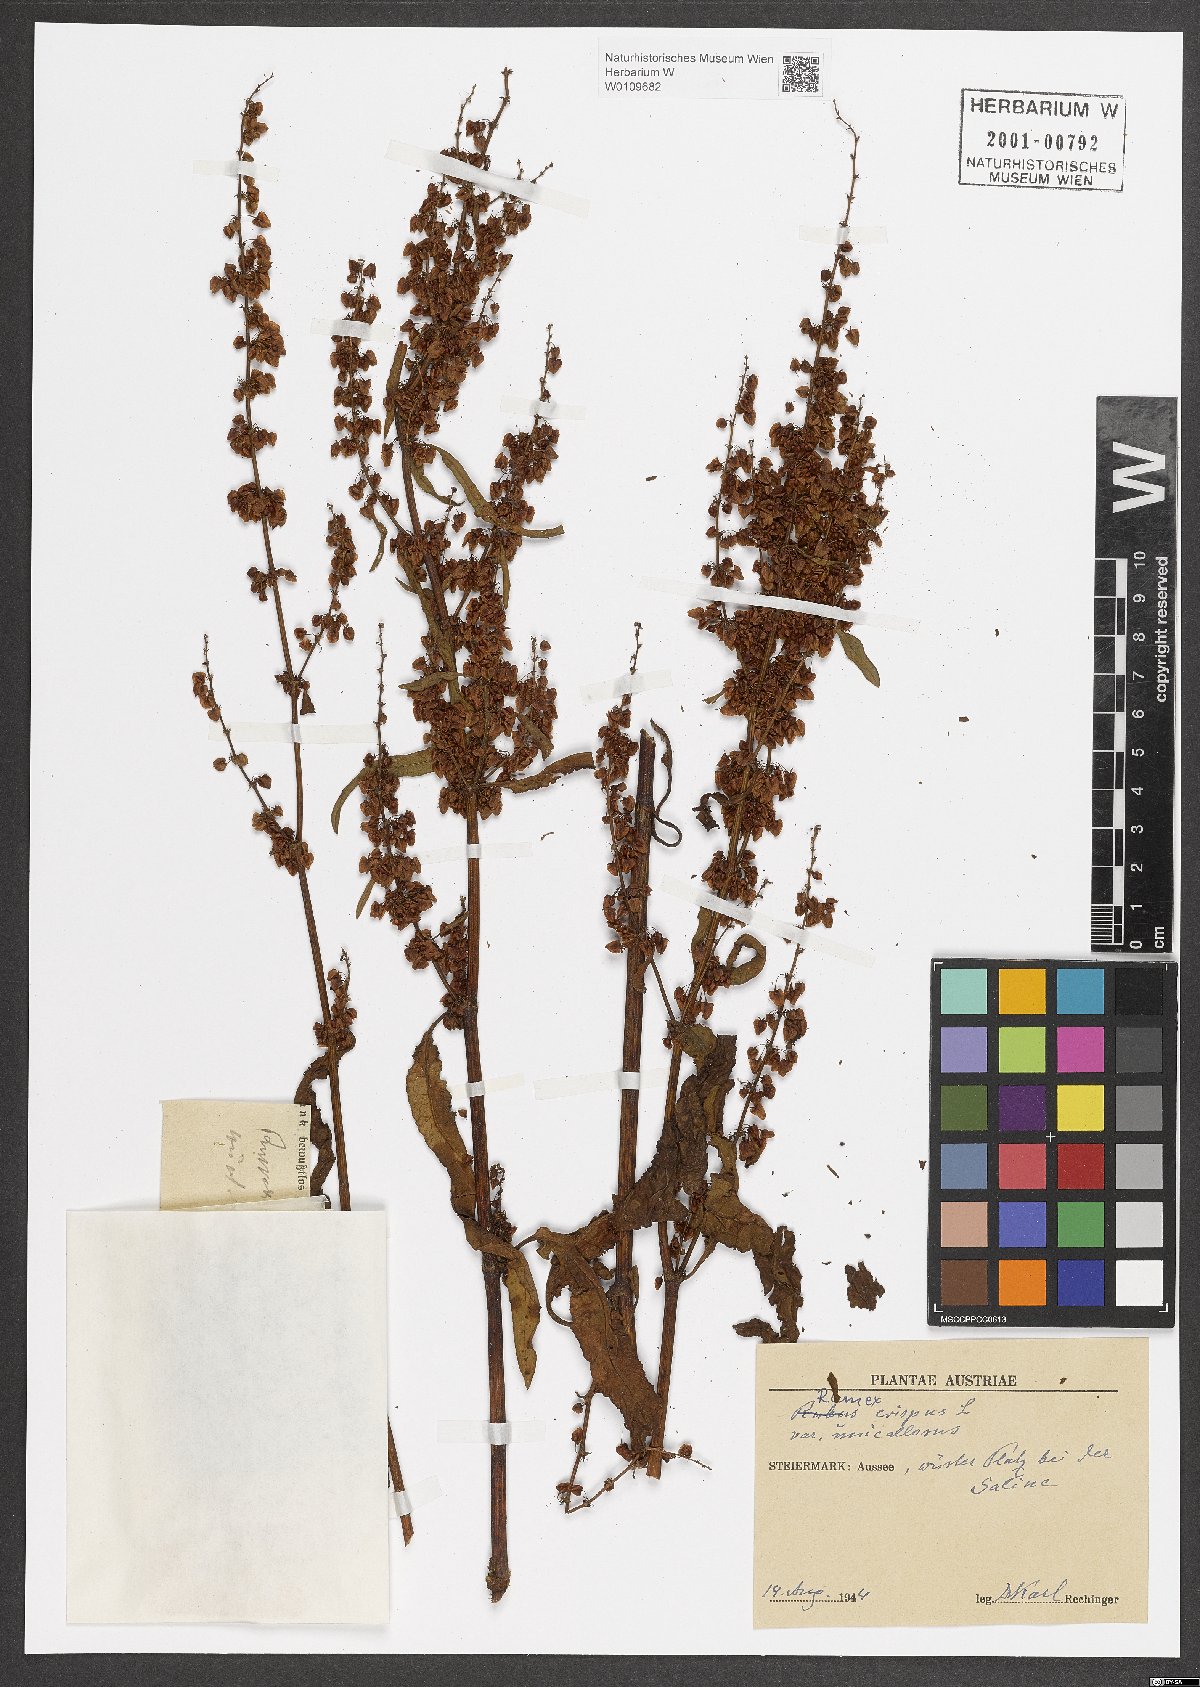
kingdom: Plantae
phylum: Tracheophyta
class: Magnoliopsida
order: Caryophyllales
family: Polygonaceae
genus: Rumex
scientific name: Rumex crispus
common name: Curled dock
